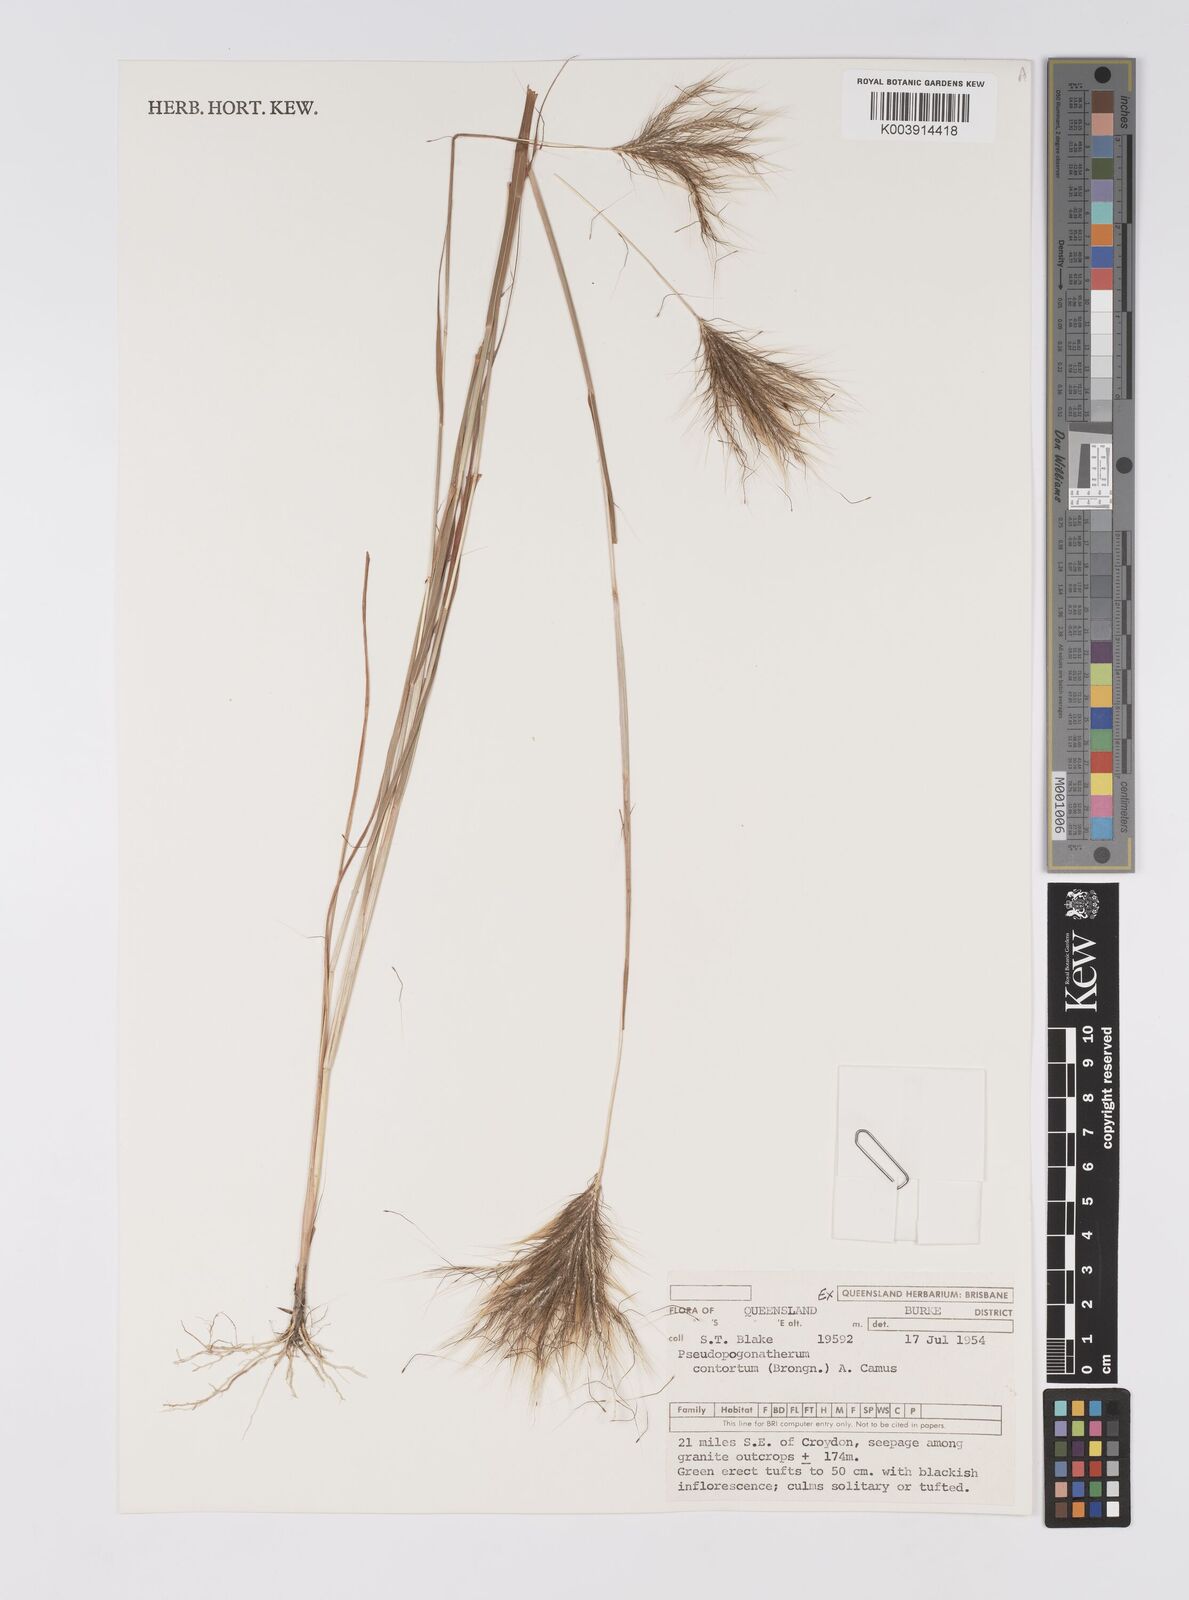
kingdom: Plantae
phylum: Tracheophyta
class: Liliopsida
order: Poales
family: Poaceae
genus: Pseudopogonatherum
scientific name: Pseudopogonatherum contortum
